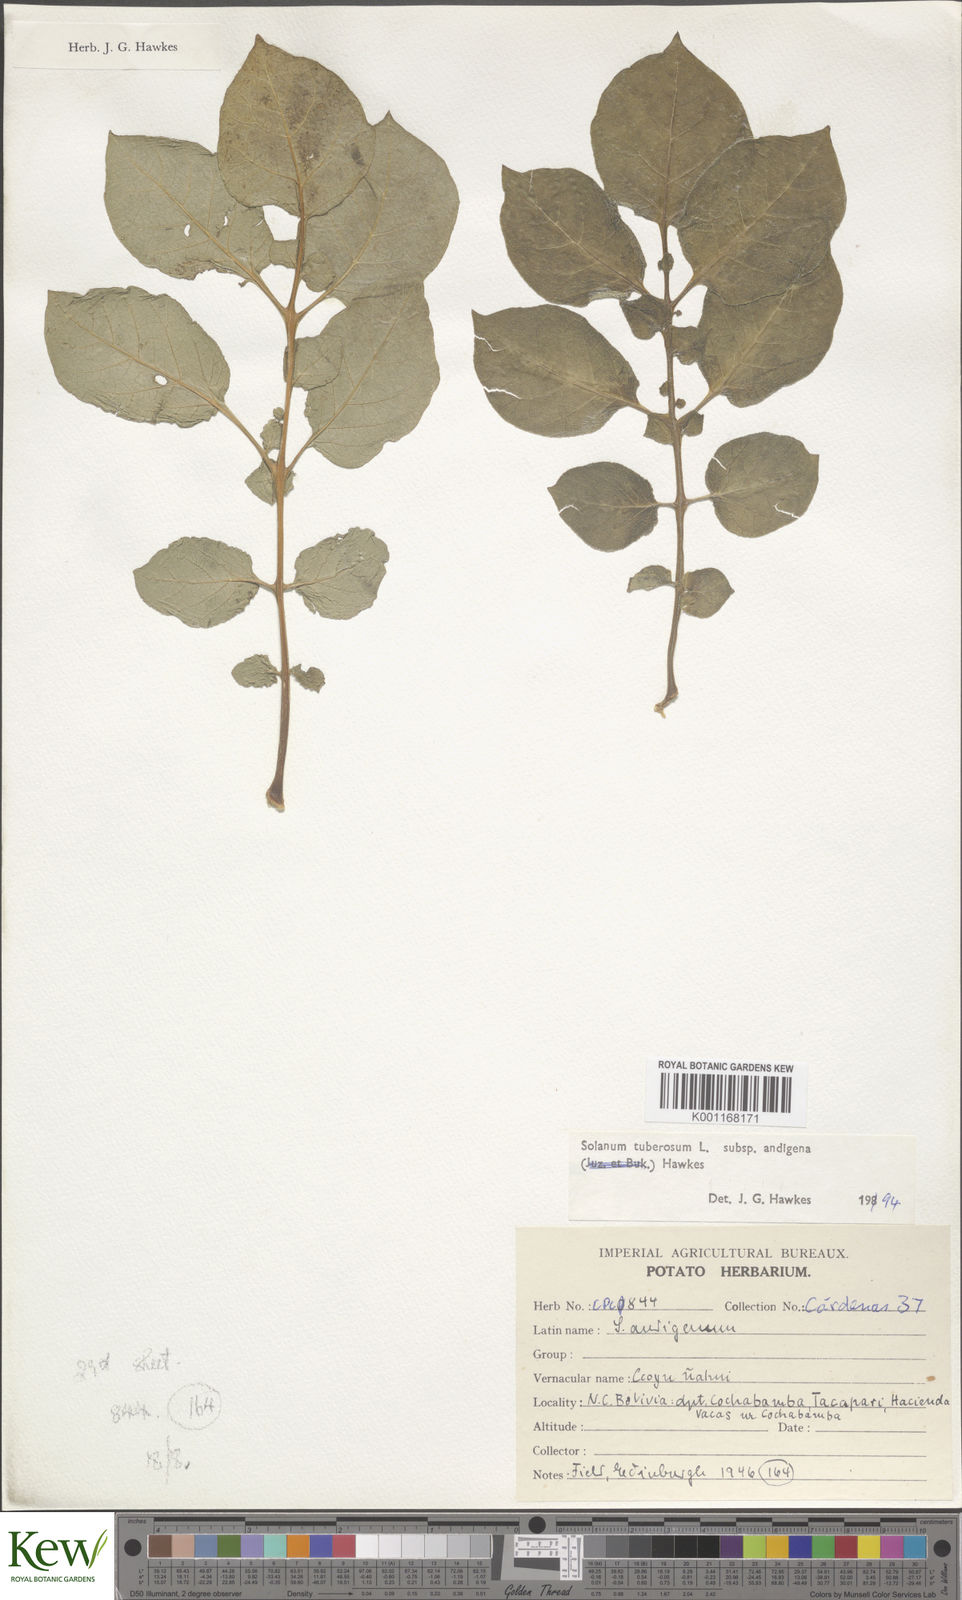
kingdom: Plantae
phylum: Tracheophyta
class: Magnoliopsida
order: Solanales
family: Solanaceae
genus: Solanum
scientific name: Solanum tuberosum
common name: Potato
